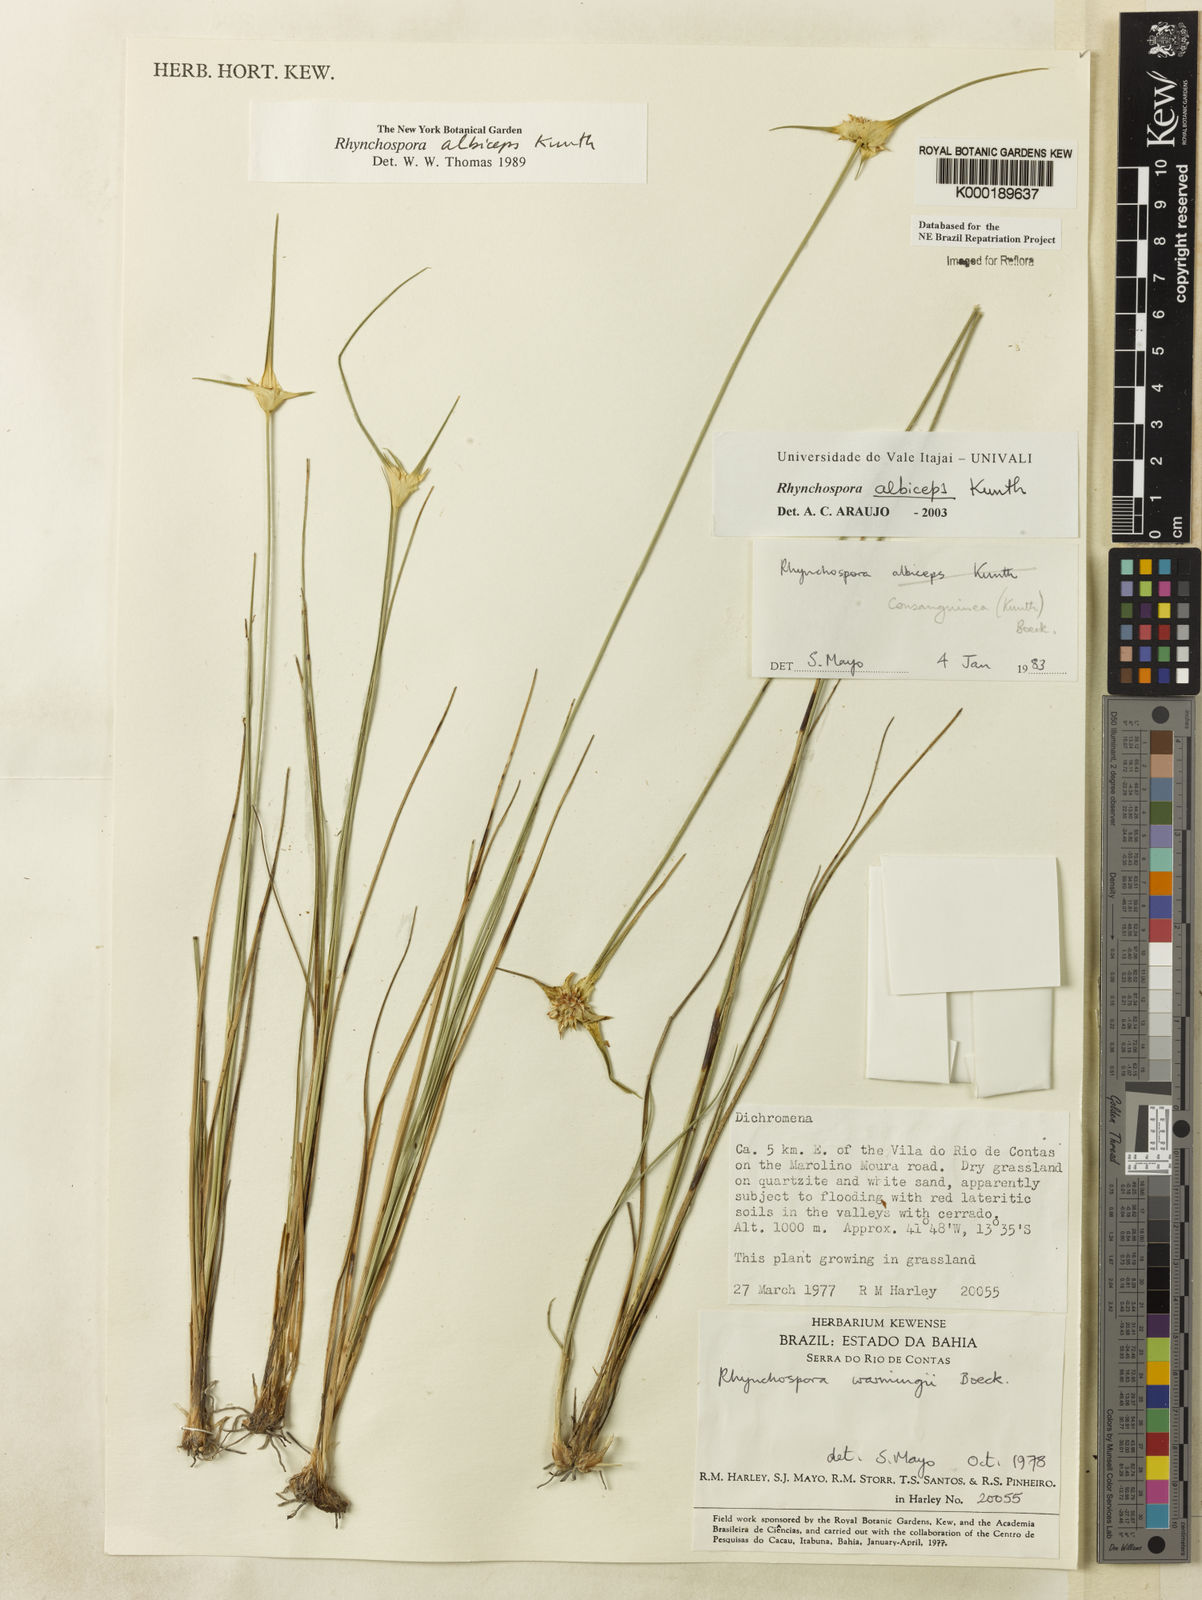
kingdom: Plantae
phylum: Tracheophyta
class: Liliopsida
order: Poales
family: Cyperaceae
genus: Rhynchospora
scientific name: Rhynchospora albiceps
